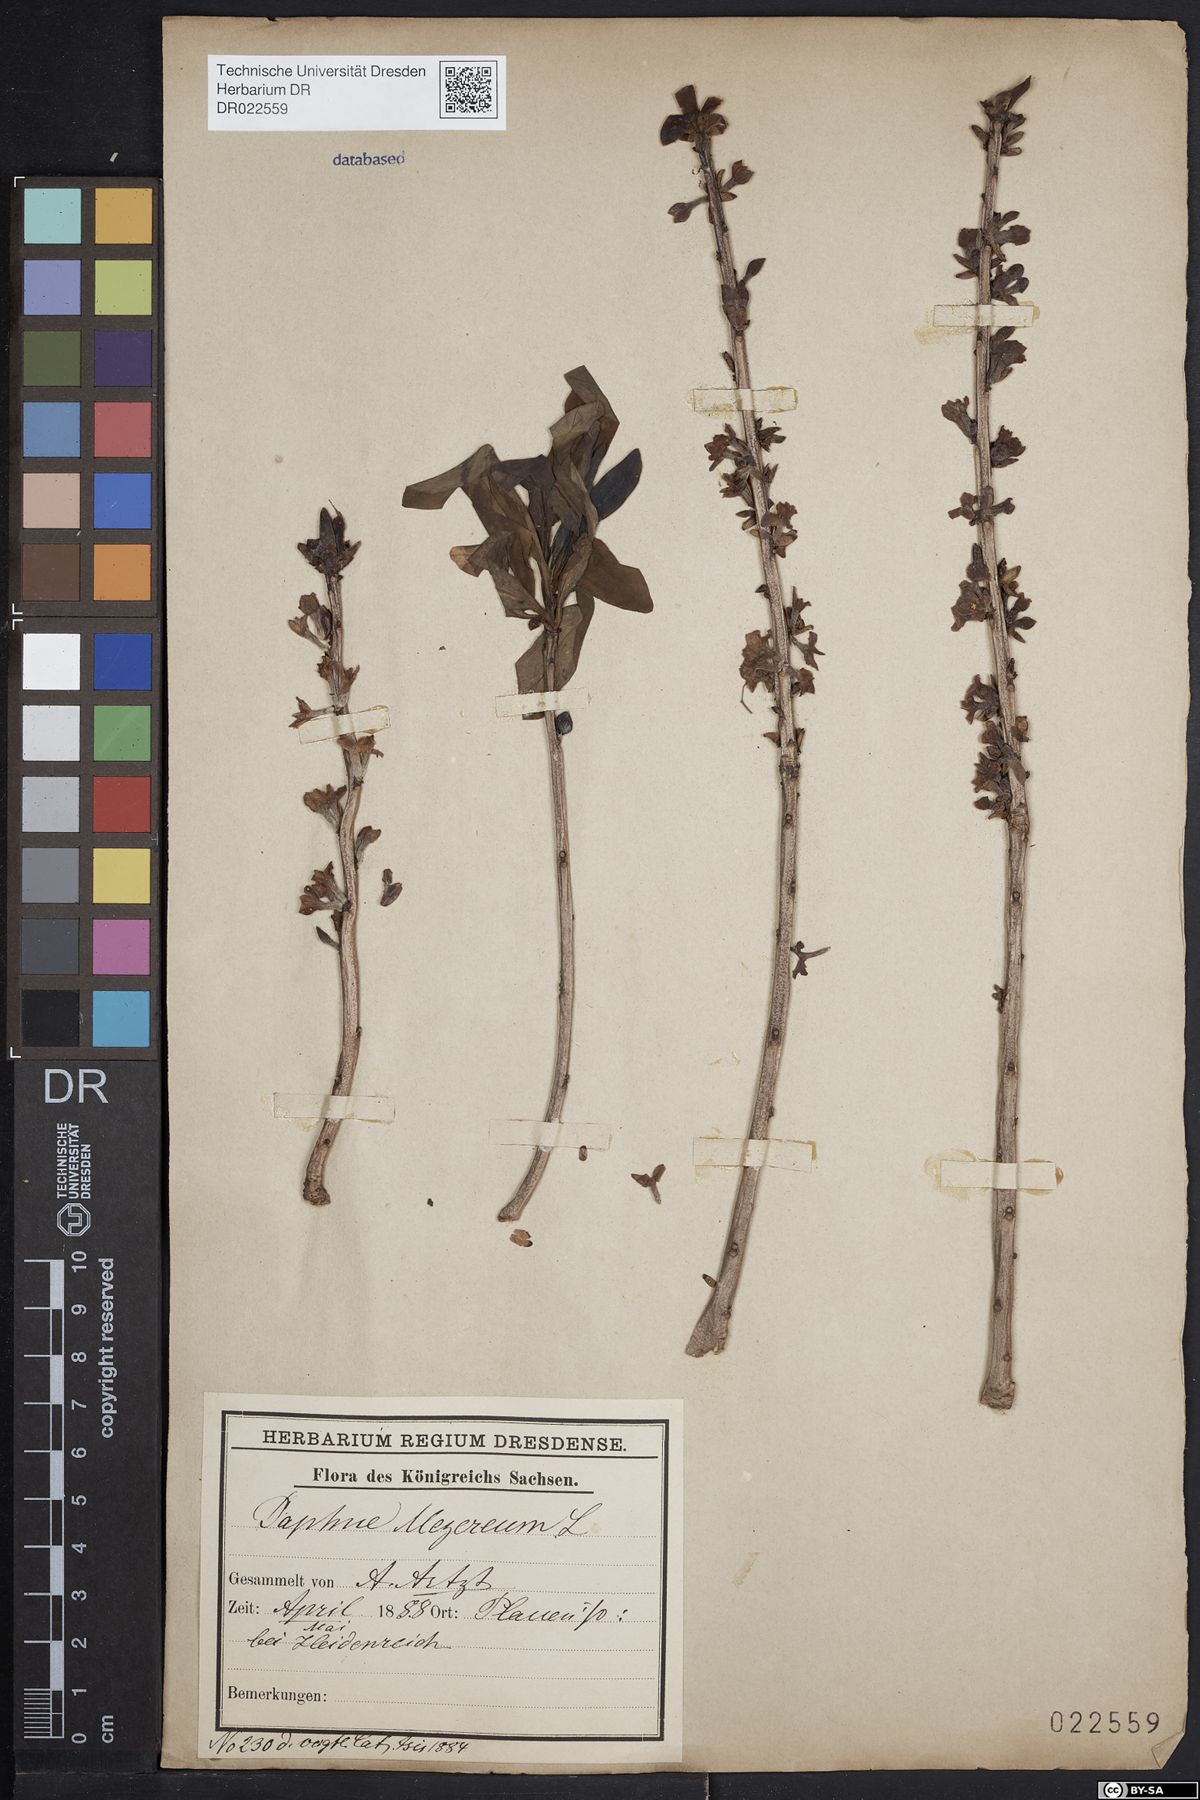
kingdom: Plantae
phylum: Tracheophyta
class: Magnoliopsida
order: Malvales
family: Thymelaeaceae
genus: Daphne
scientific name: Daphne mezereum
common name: Mezereon
